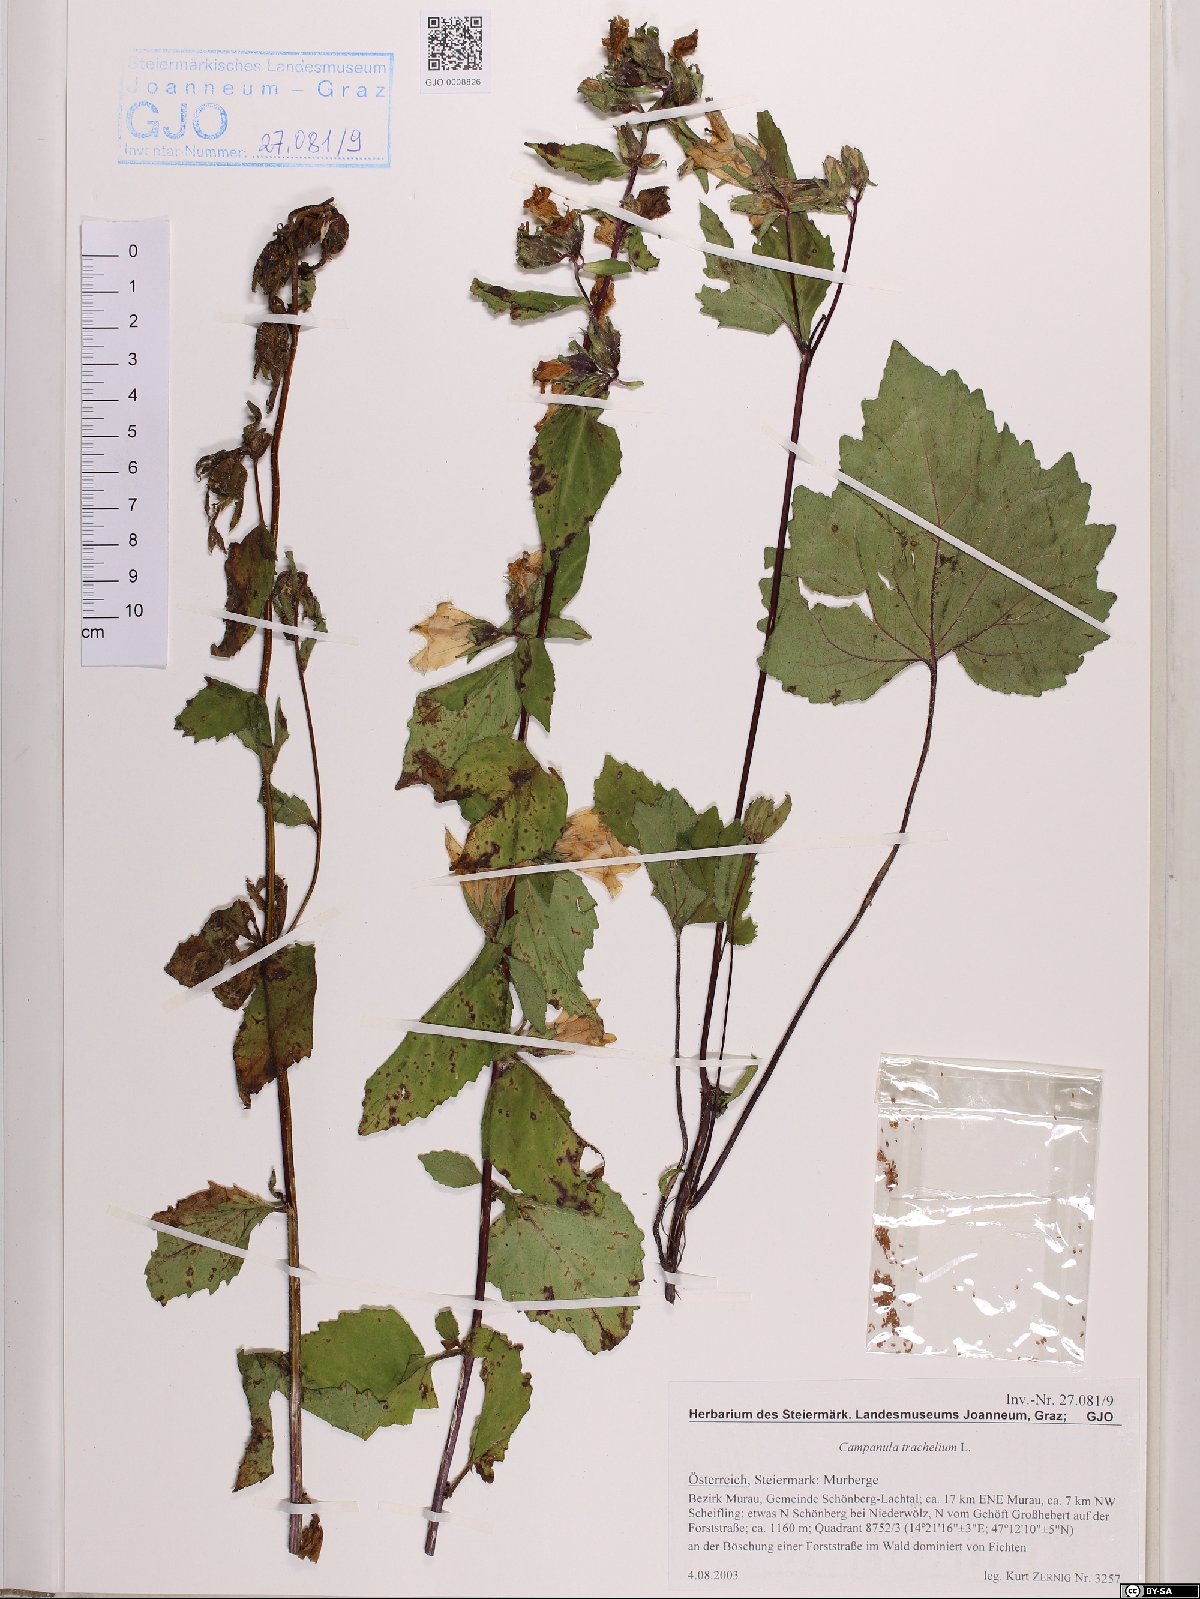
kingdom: Plantae
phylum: Tracheophyta
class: Magnoliopsida
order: Asterales
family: Campanulaceae
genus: Campanula
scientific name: Campanula trachelium
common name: Nettle-leaved bellflower
